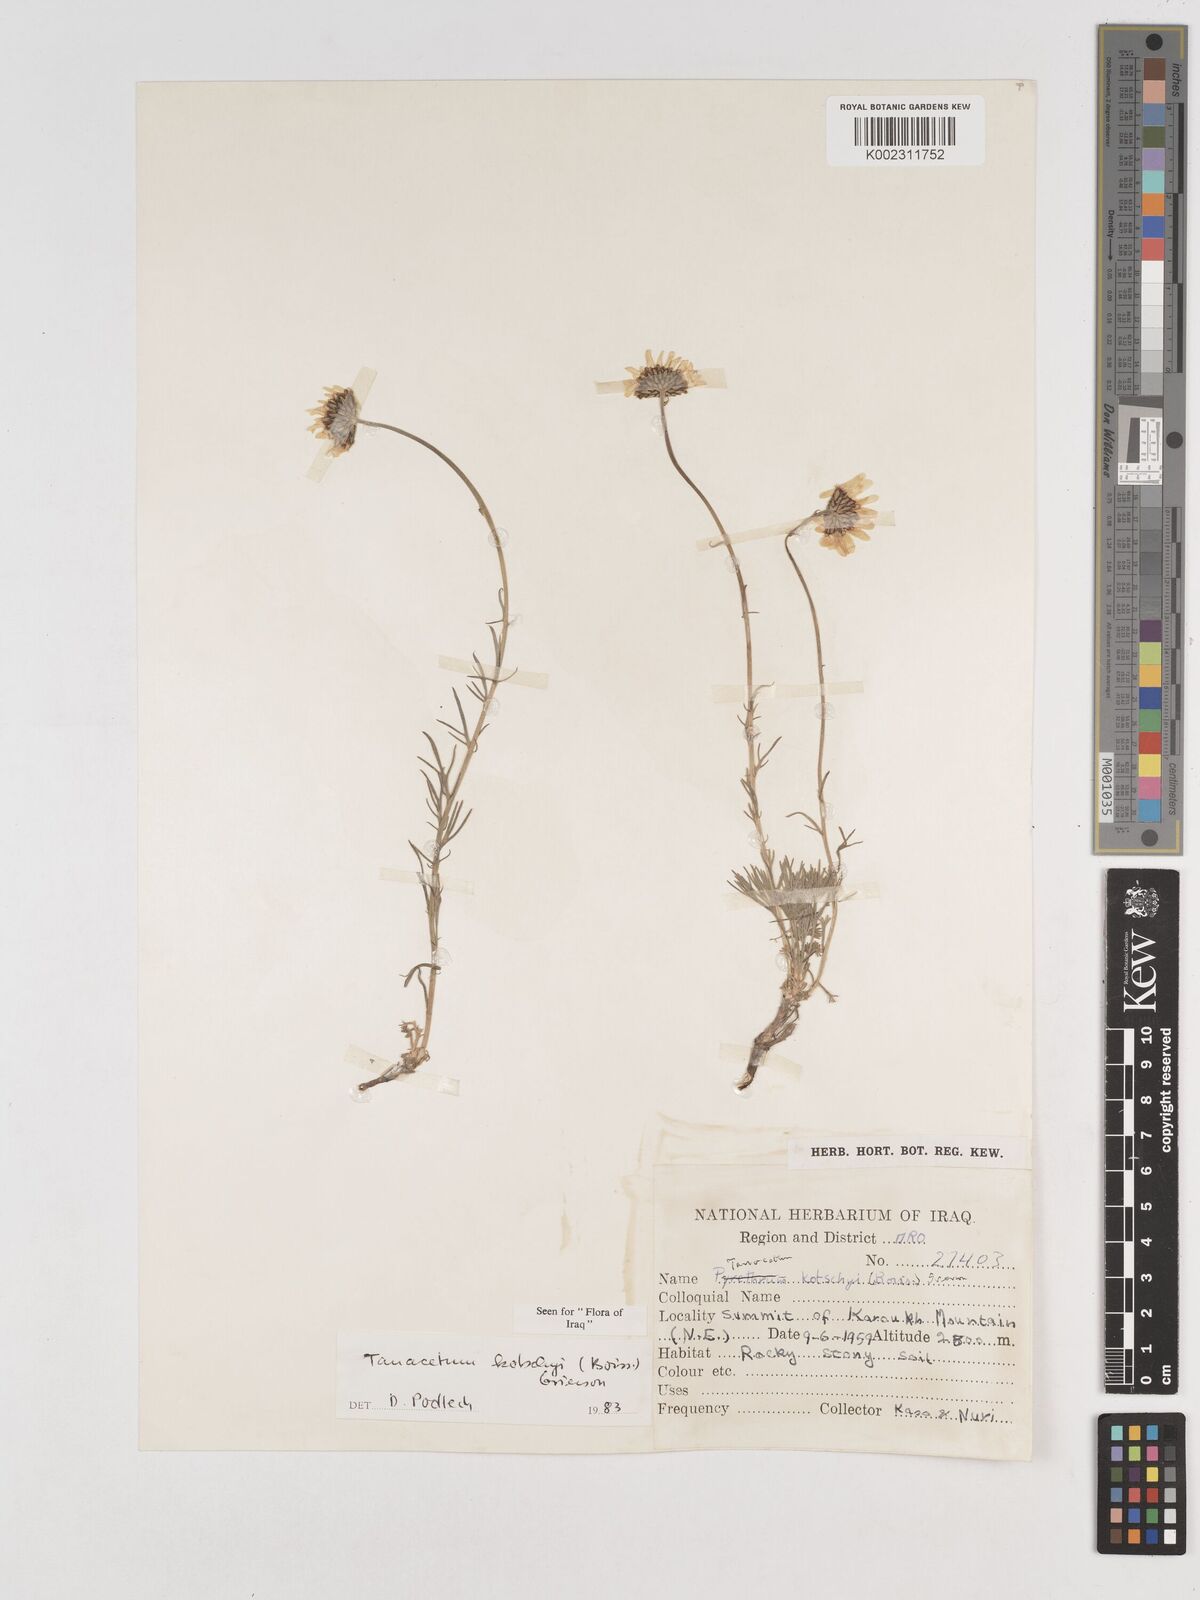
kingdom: Plantae
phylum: Tracheophyta
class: Magnoliopsida
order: Asterales
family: Asteraceae
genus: Tanacetum
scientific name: Tanacetum polycephalum
